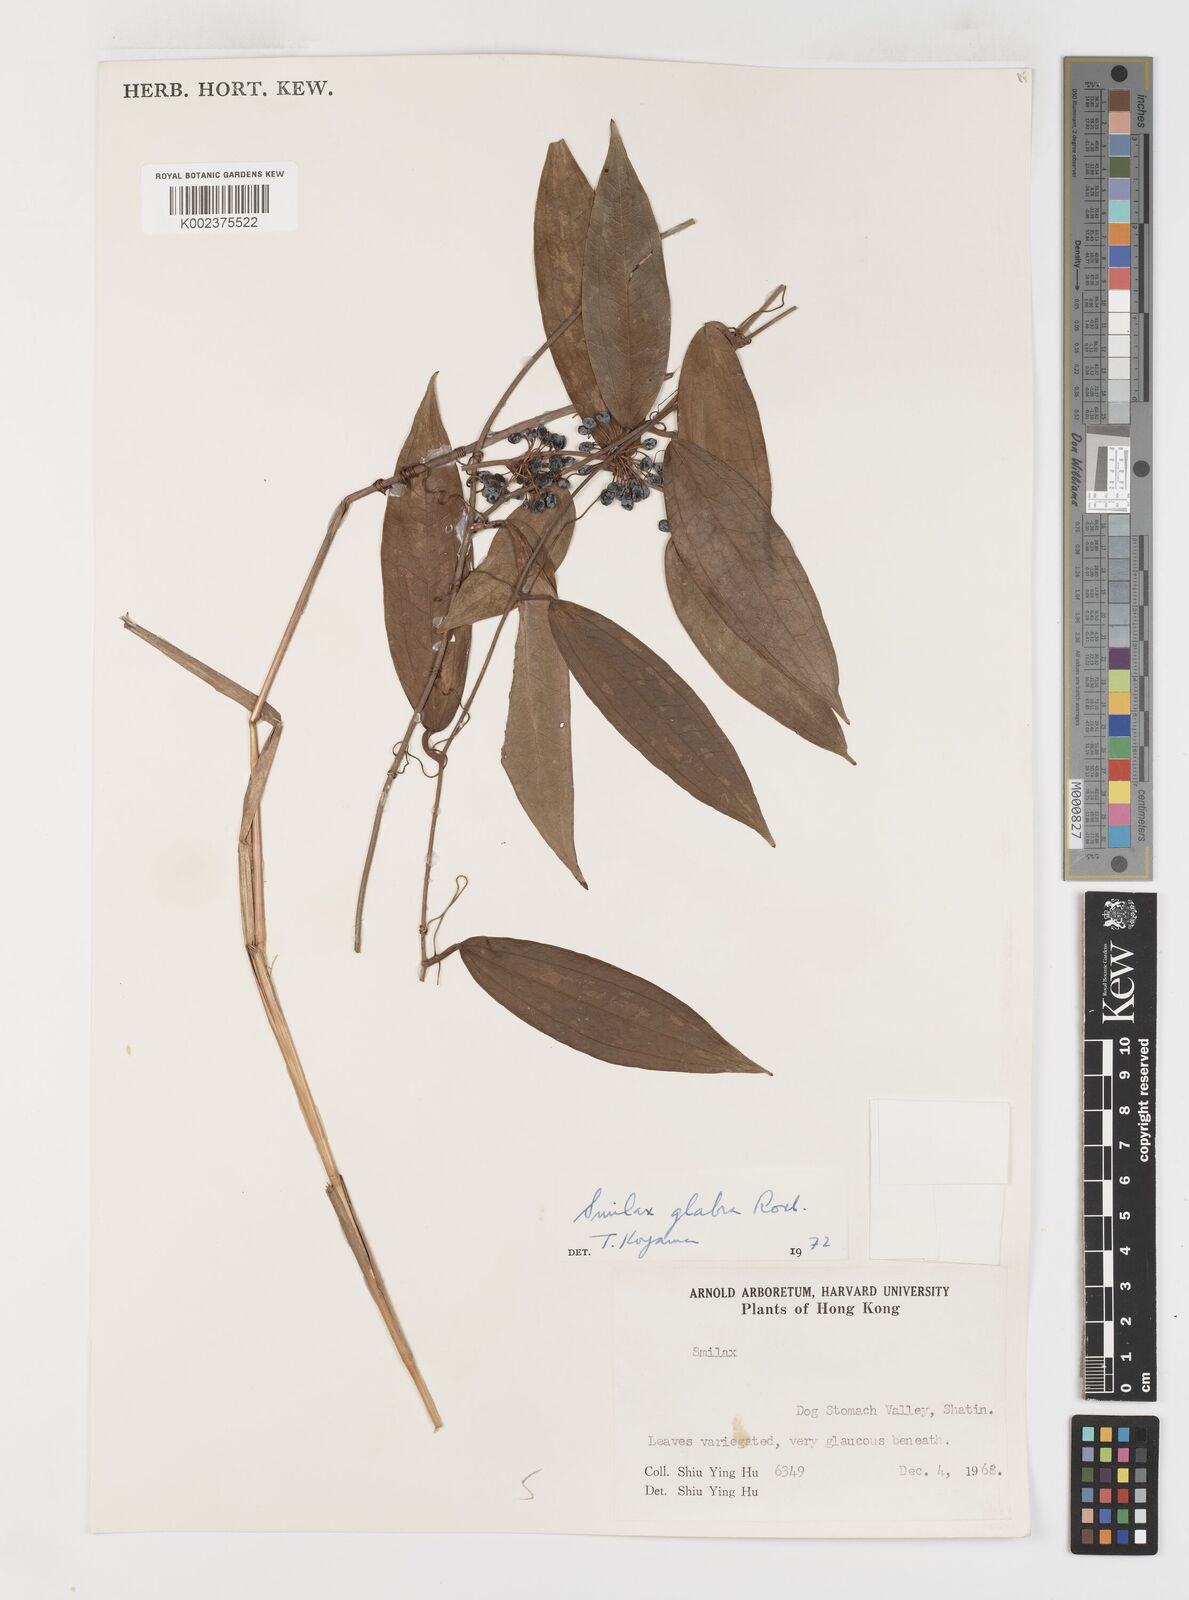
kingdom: Plantae
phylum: Tracheophyta
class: Liliopsida
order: Liliales
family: Smilacaceae
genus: Smilax
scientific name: Smilax glabra
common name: Chinese smilax
